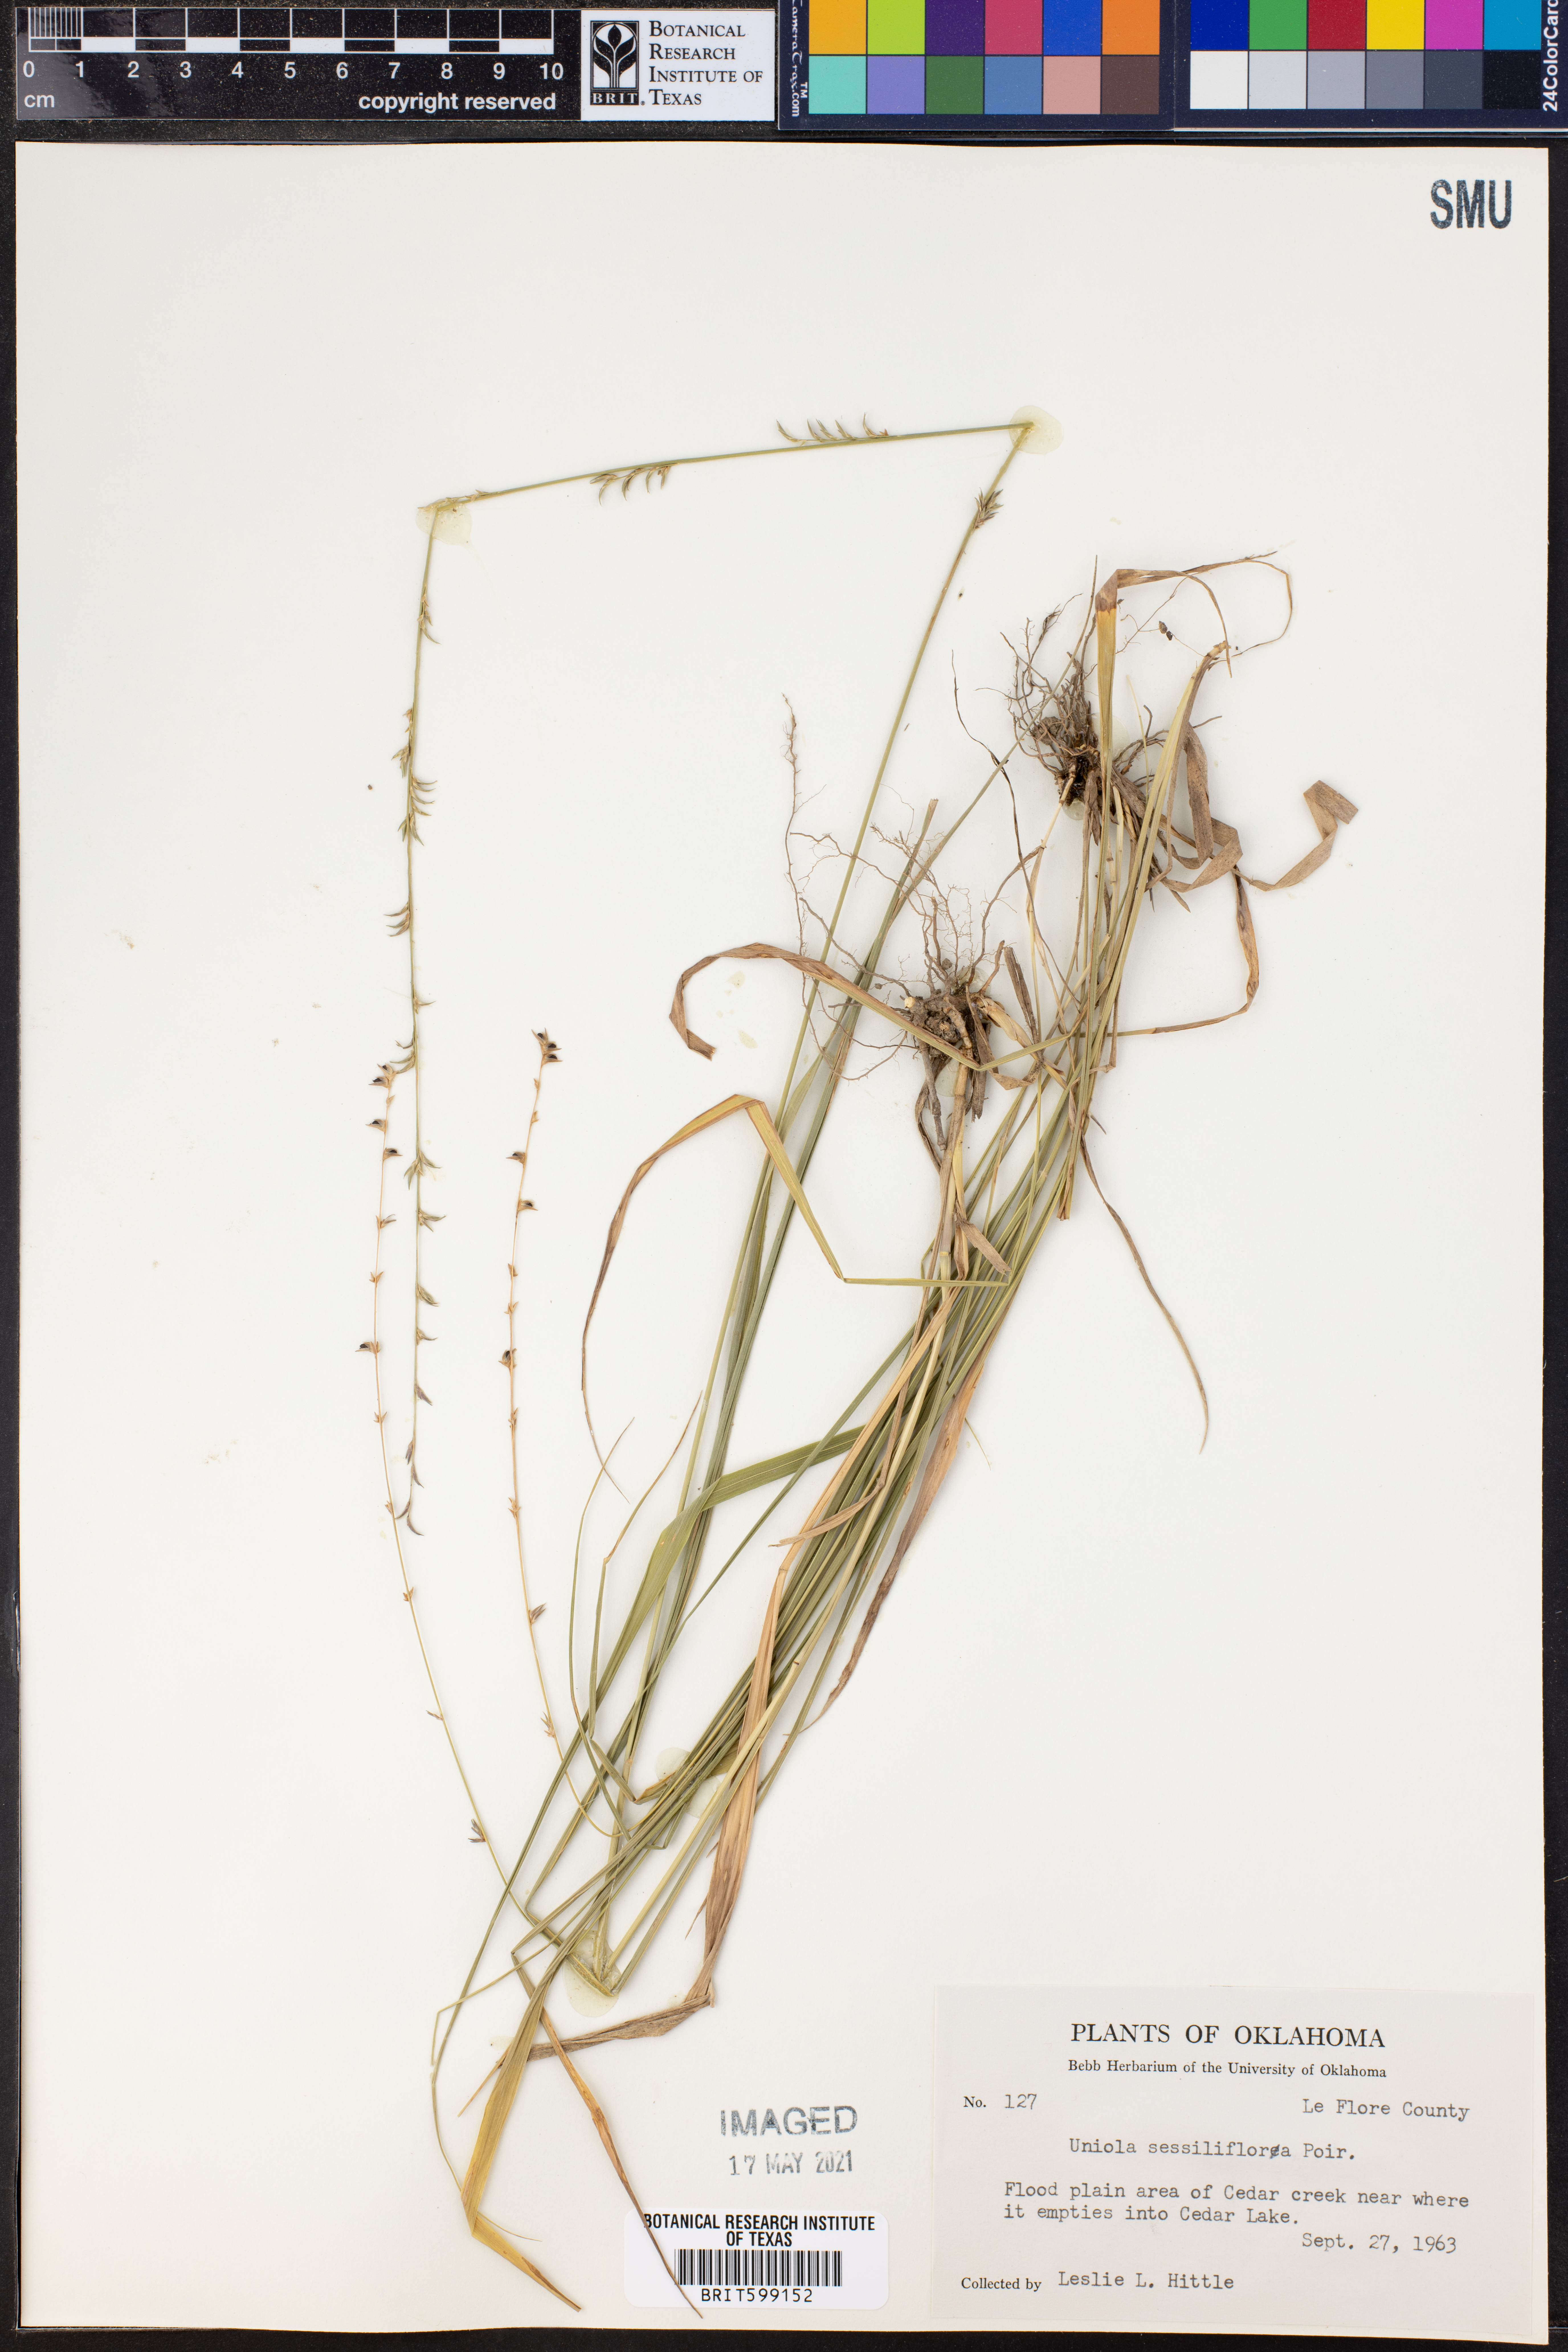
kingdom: Plantae
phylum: Tracheophyta
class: Liliopsida
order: Poales
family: Poaceae
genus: Chasmanthium
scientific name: Chasmanthium laxum
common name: Slender chasmanthium
